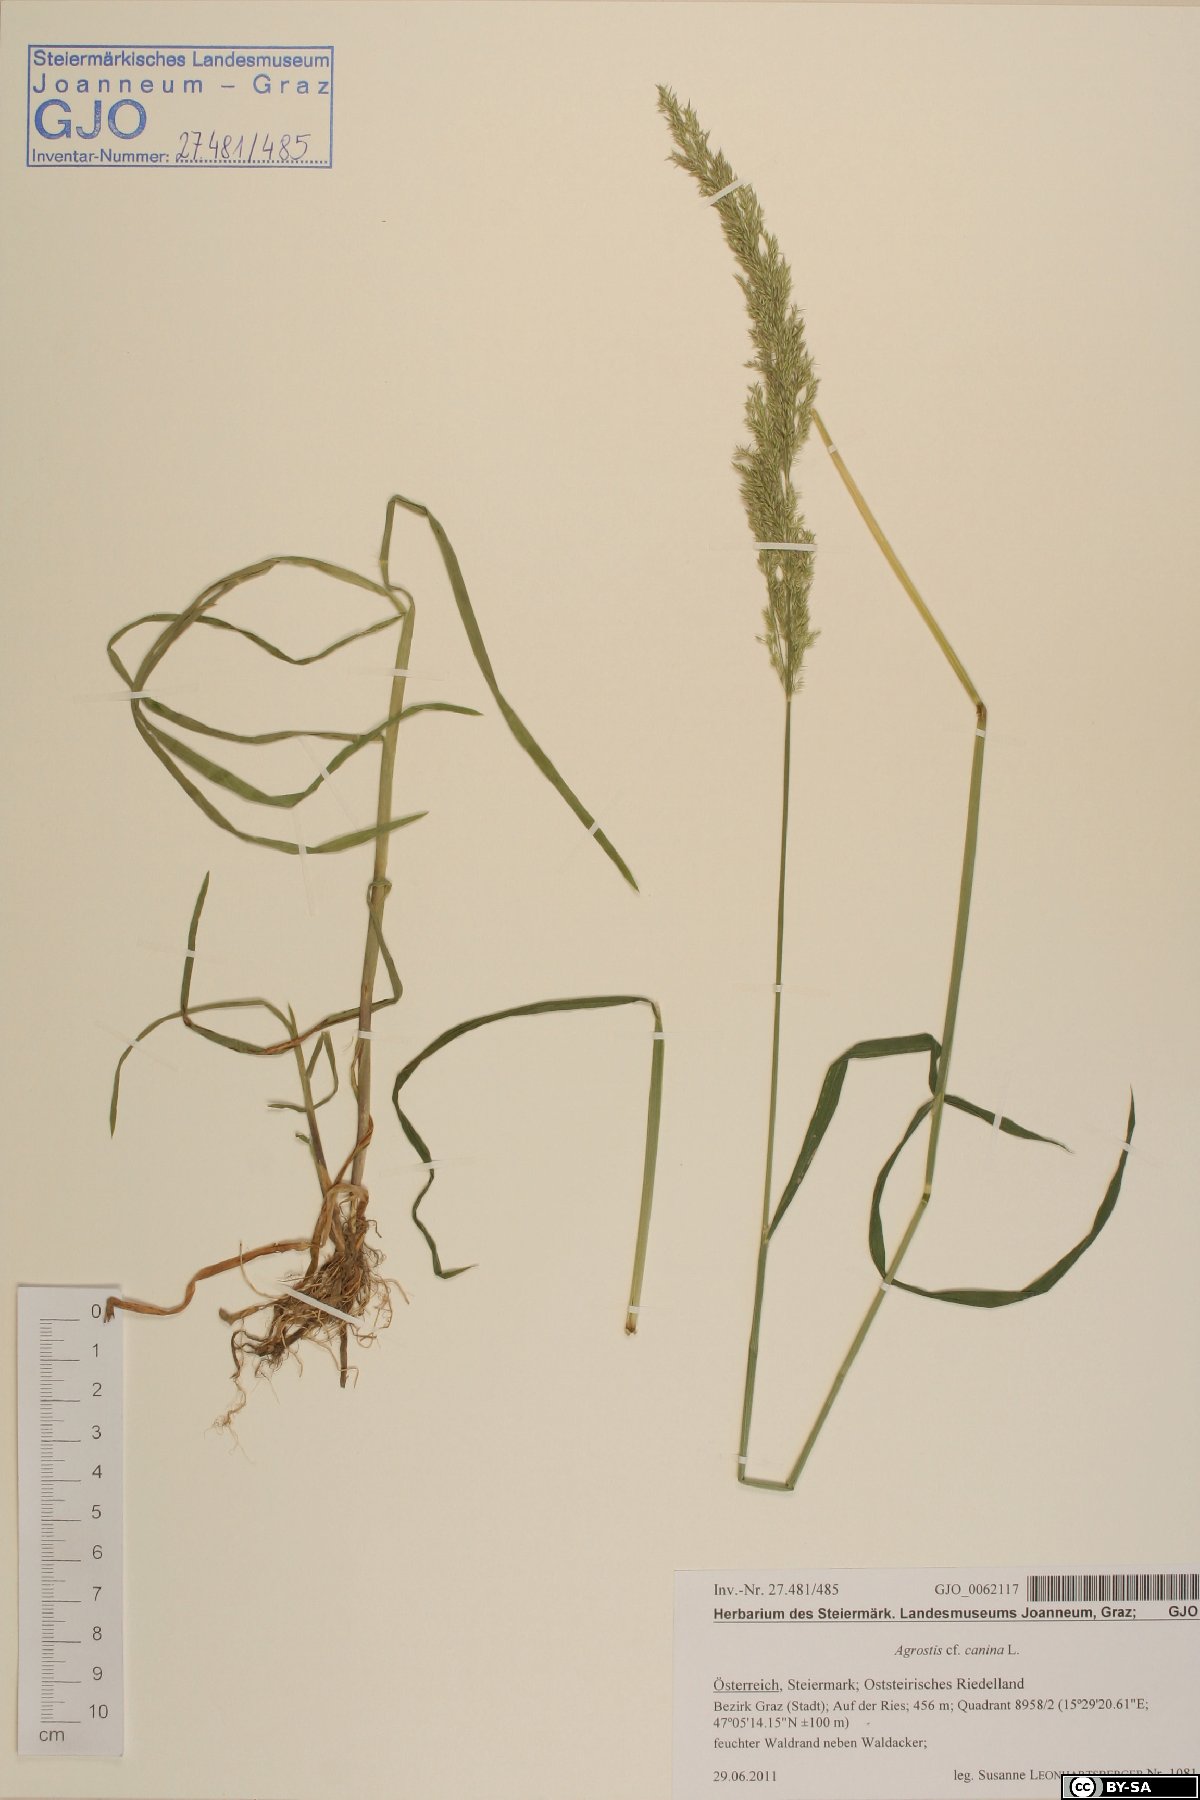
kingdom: Plantae
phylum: Tracheophyta
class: Liliopsida
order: Poales
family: Poaceae
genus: Agrostis
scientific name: Agrostis stolonifera
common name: Creeping bentgrass
